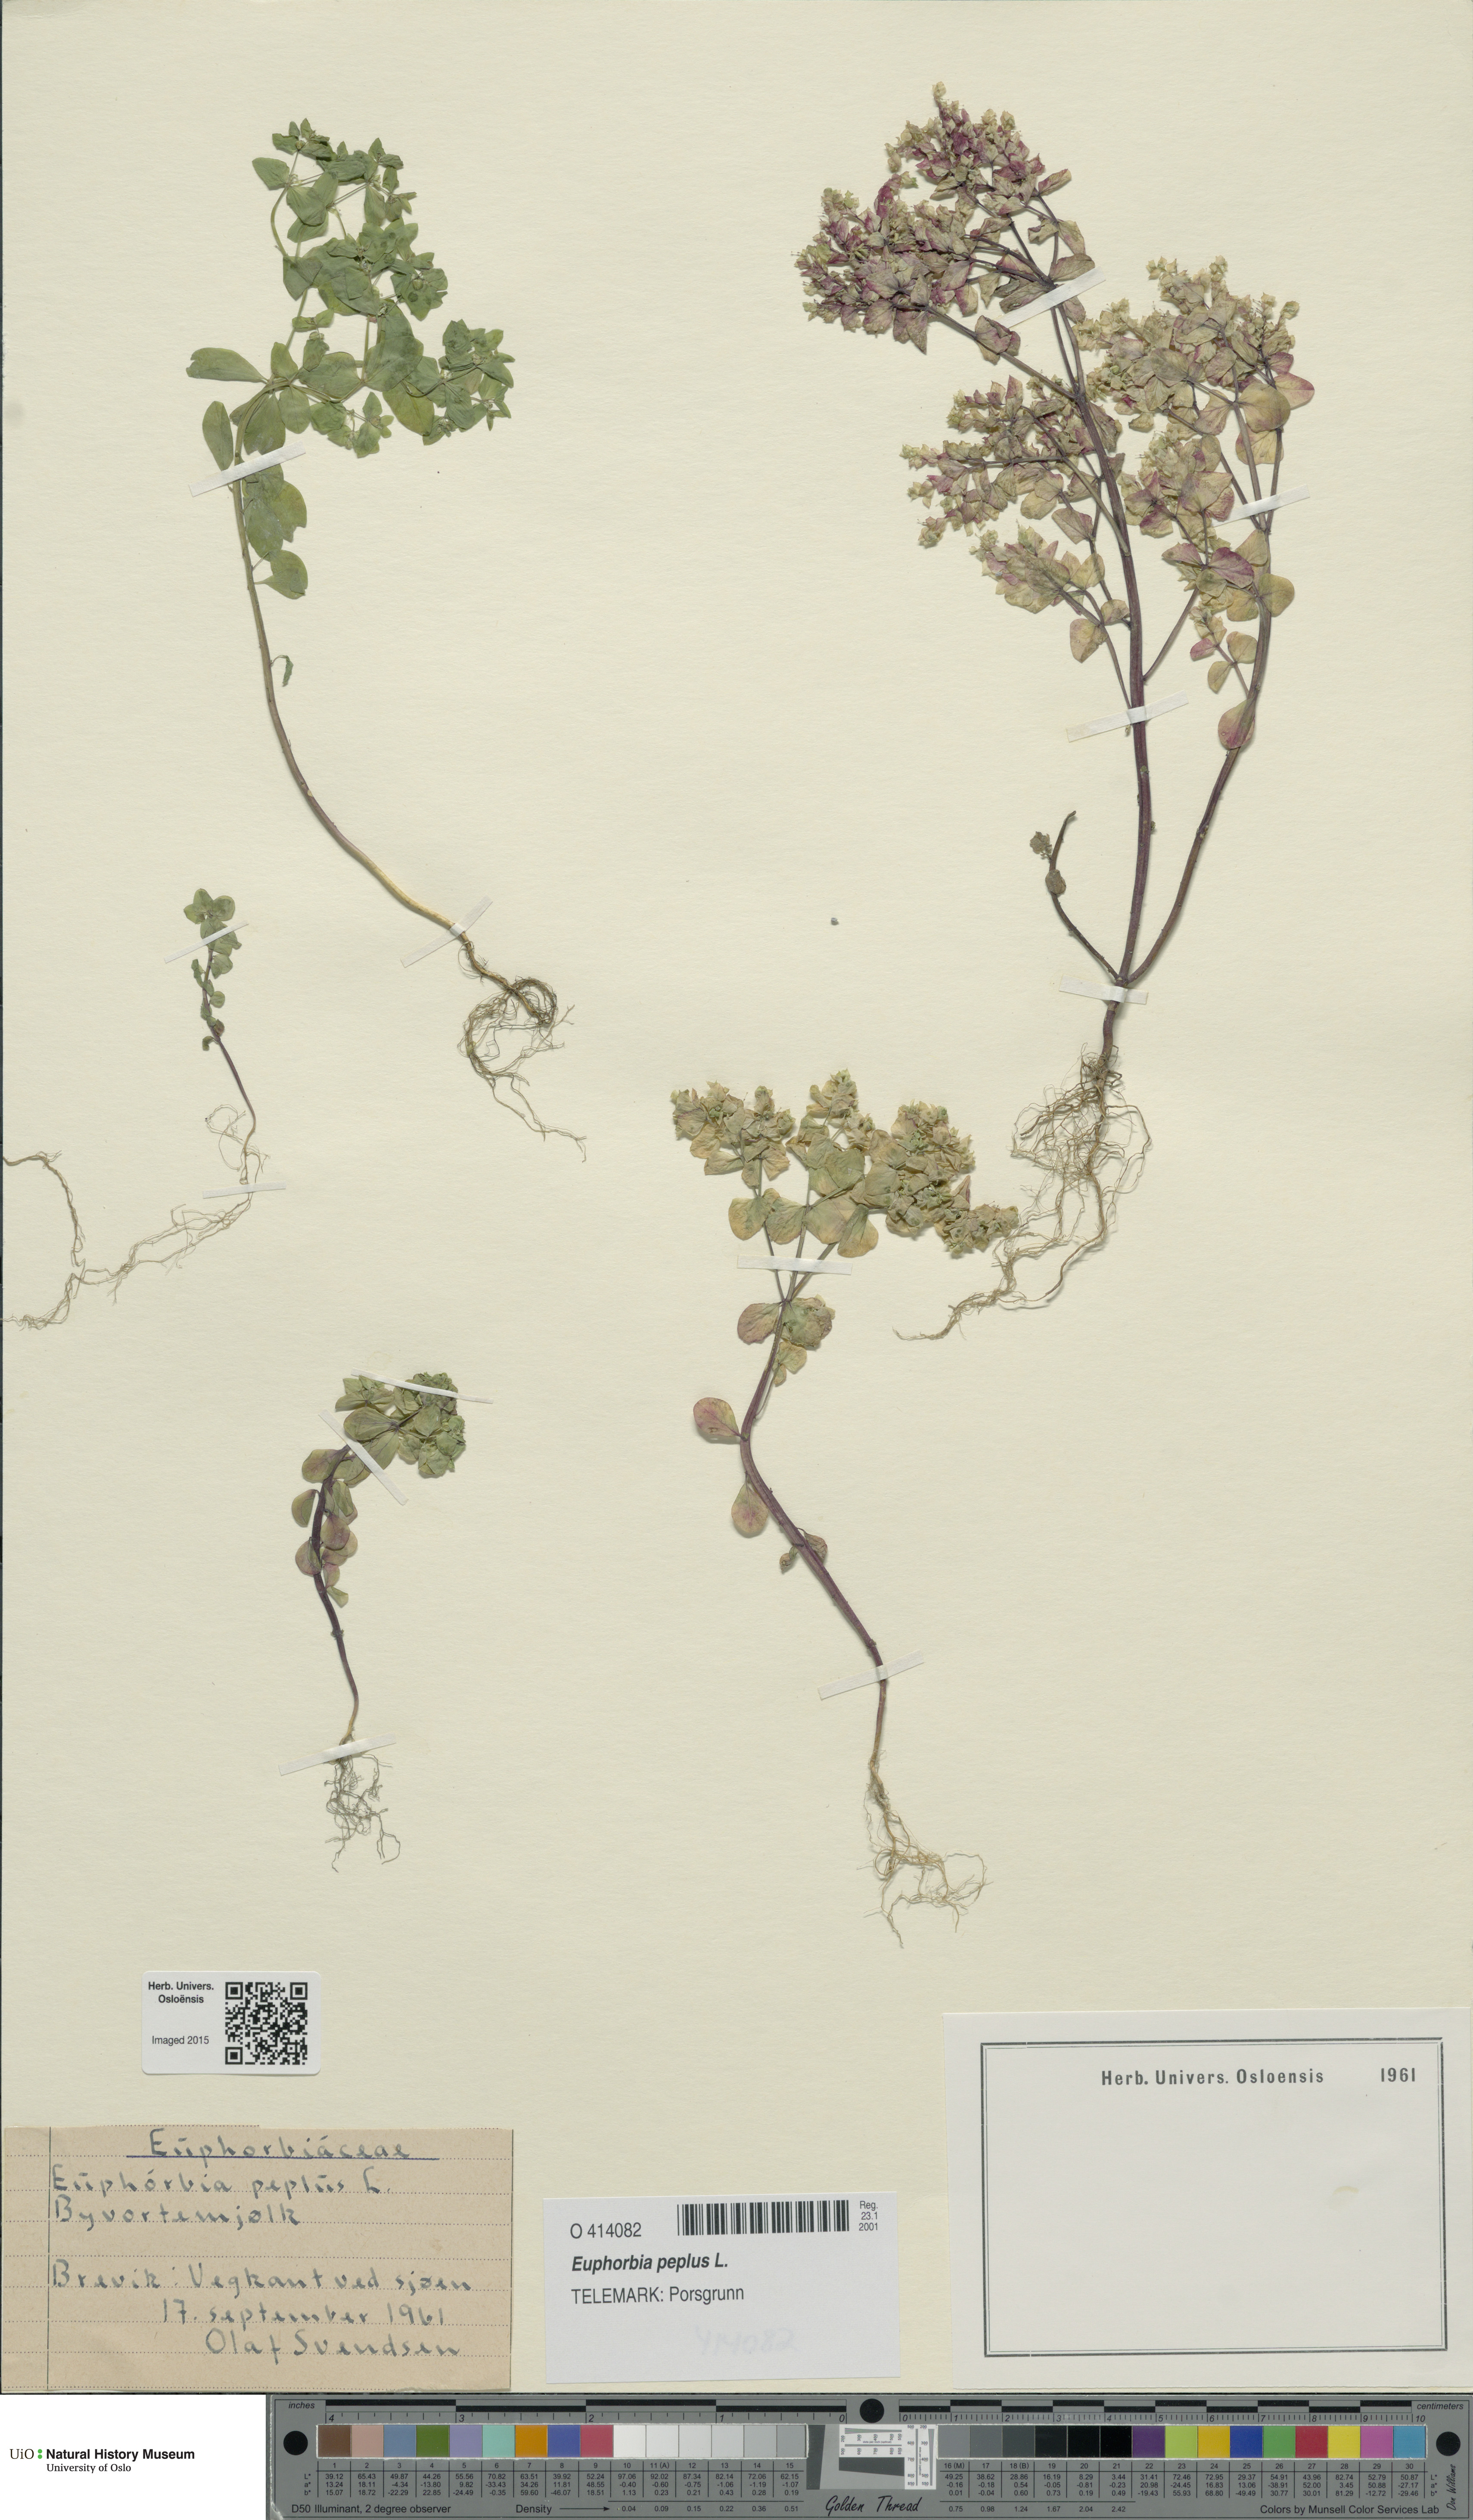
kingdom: Plantae
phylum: Tracheophyta
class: Magnoliopsida
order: Malpighiales
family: Euphorbiaceae
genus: Euphorbia
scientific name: Euphorbia peplus
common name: Petty spurge
